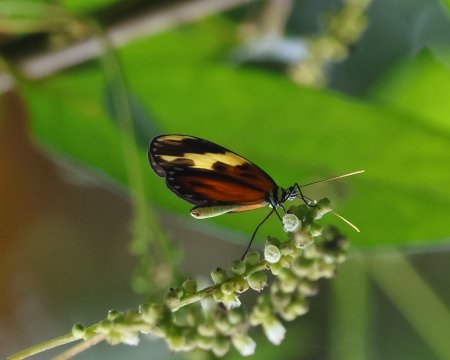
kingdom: Animalia
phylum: Arthropoda
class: Insecta
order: Lepidoptera
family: Nymphalidae
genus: Ceratinia
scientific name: Ceratinia tutia
